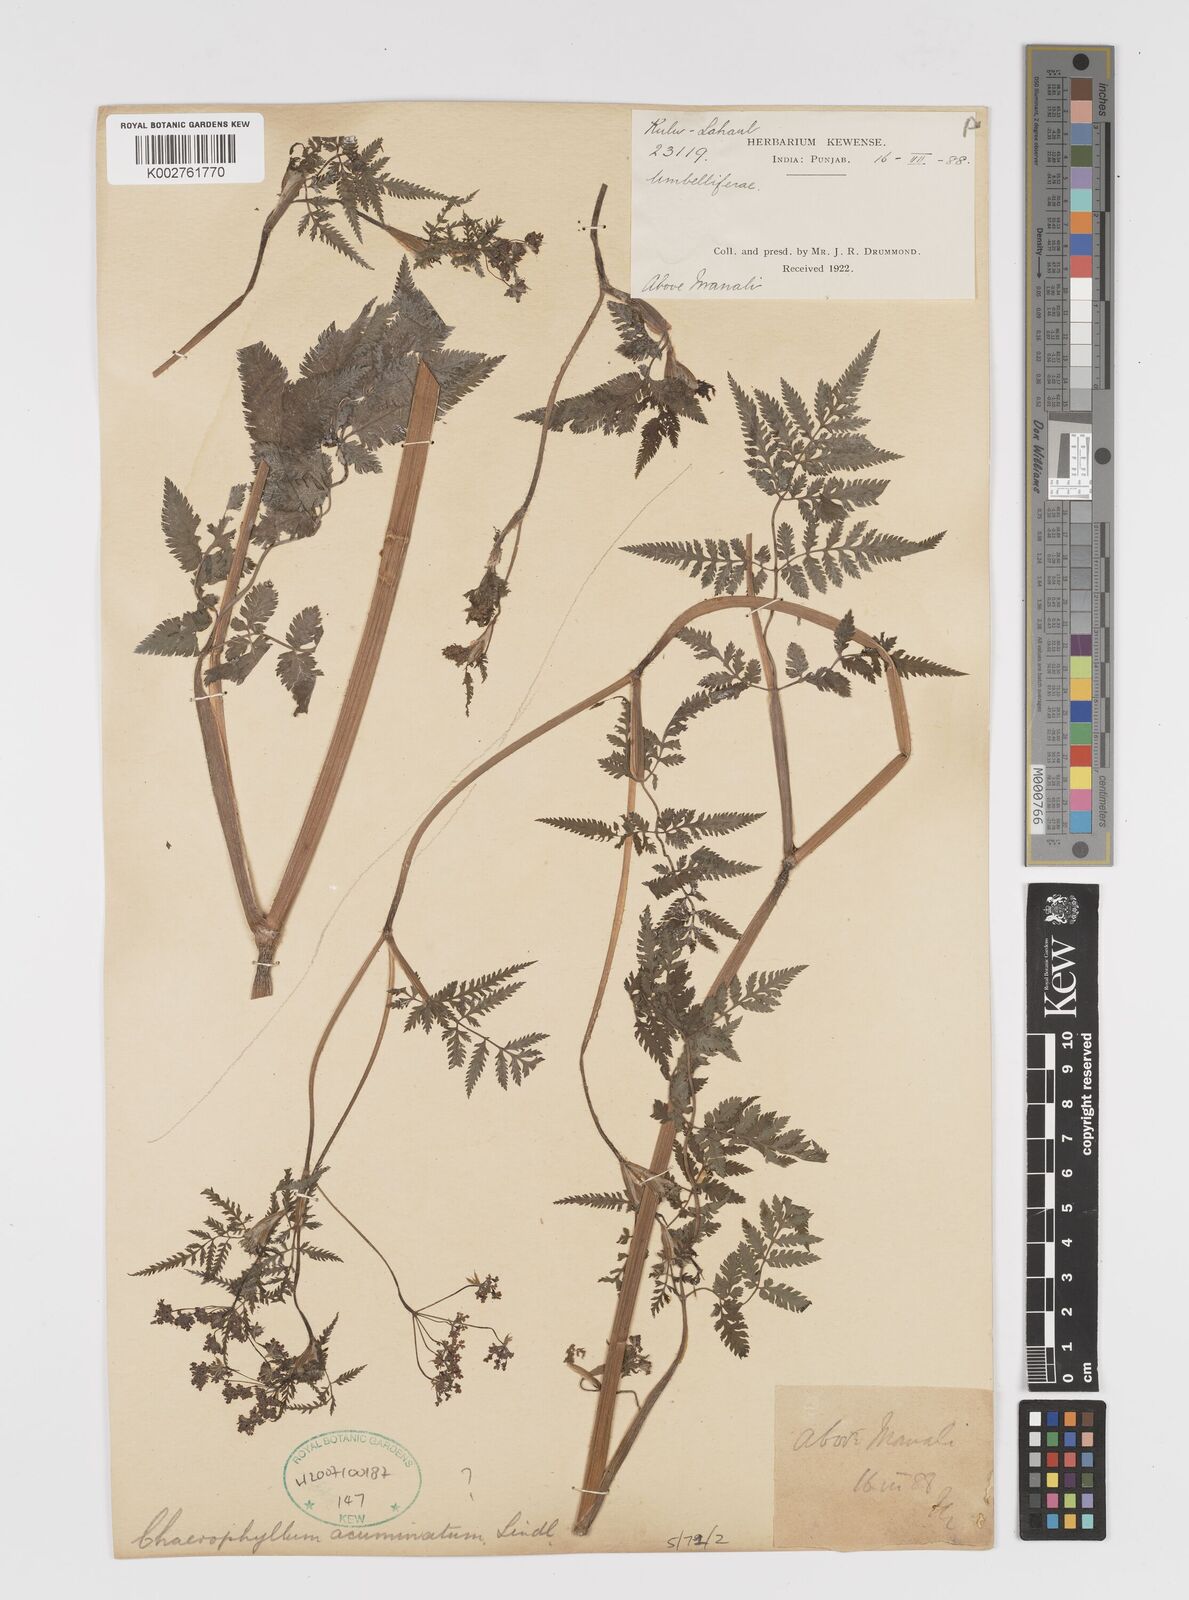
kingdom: Plantae
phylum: Tracheophyta
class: Magnoliopsida
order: Apiales
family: Apiaceae
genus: Chaerophyllum
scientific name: Chaerophyllum reflexum
